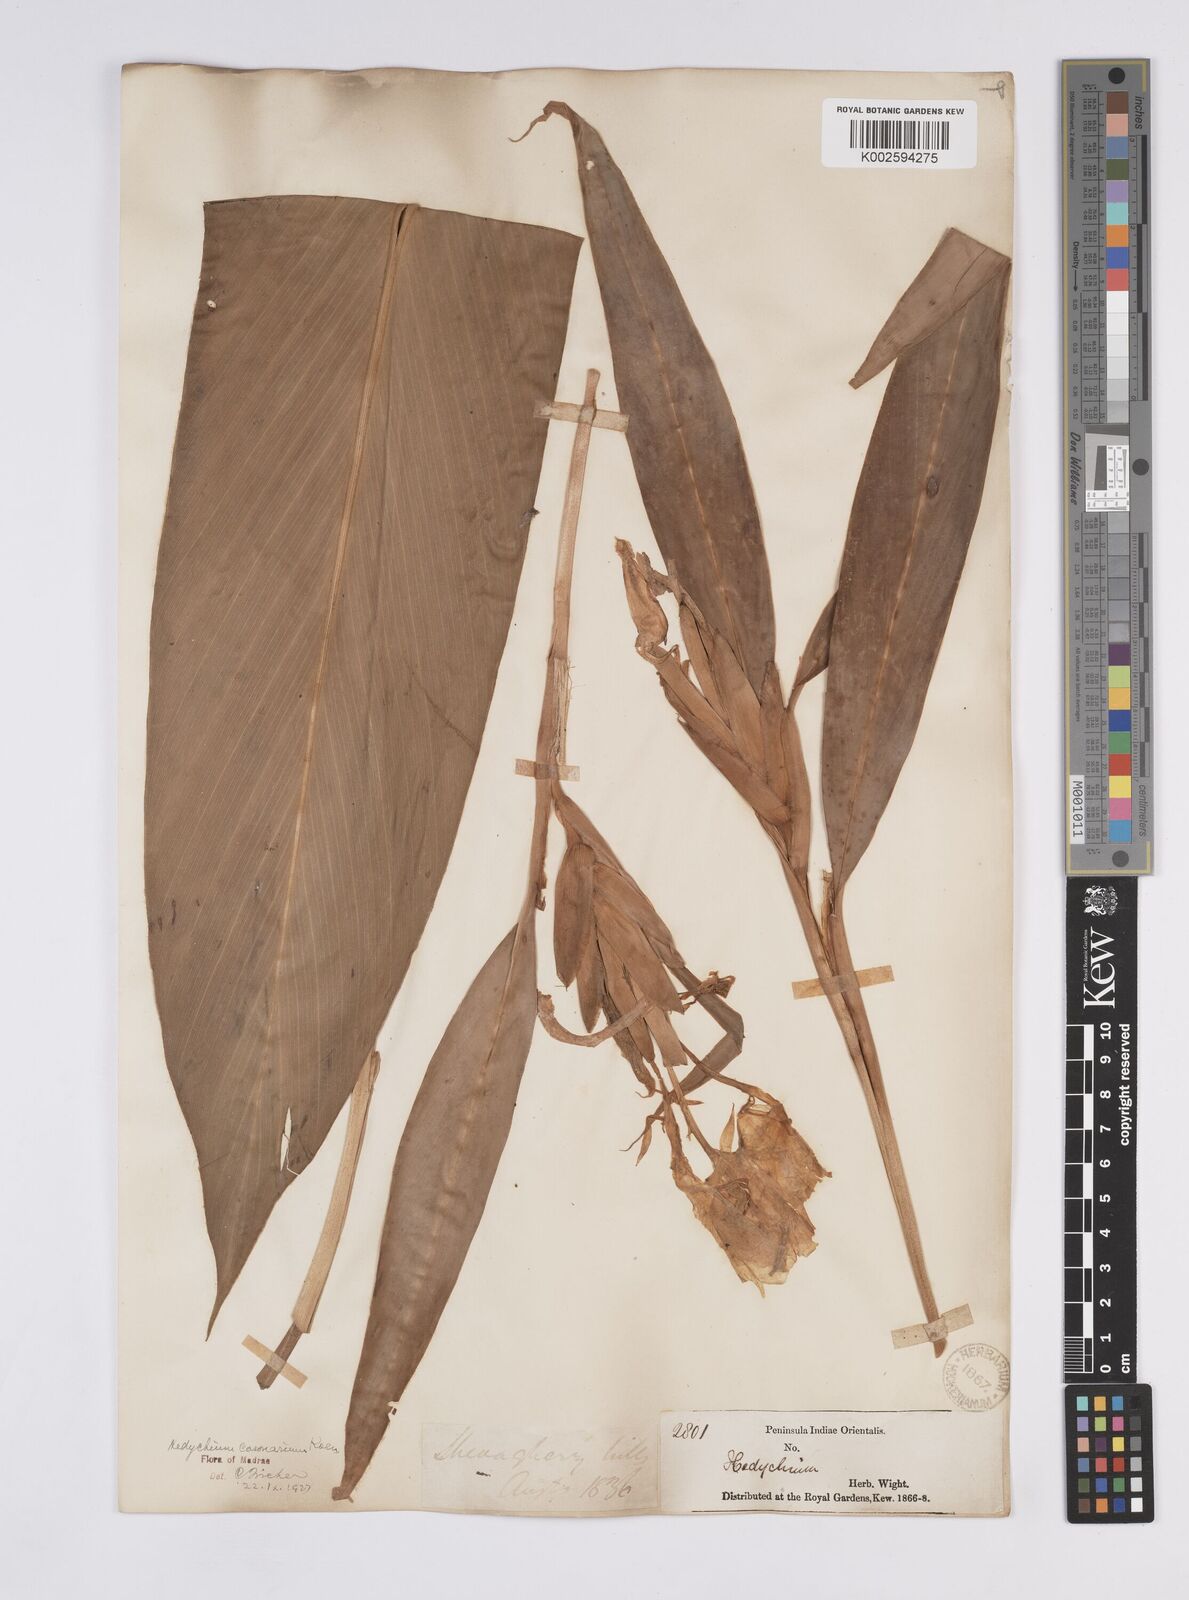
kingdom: Plantae
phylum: Tracheophyta
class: Liliopsida
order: Zingiberales
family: Zingiberaceae
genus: Hedychium
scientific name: Hedychium coronarium
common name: White garland-lily
